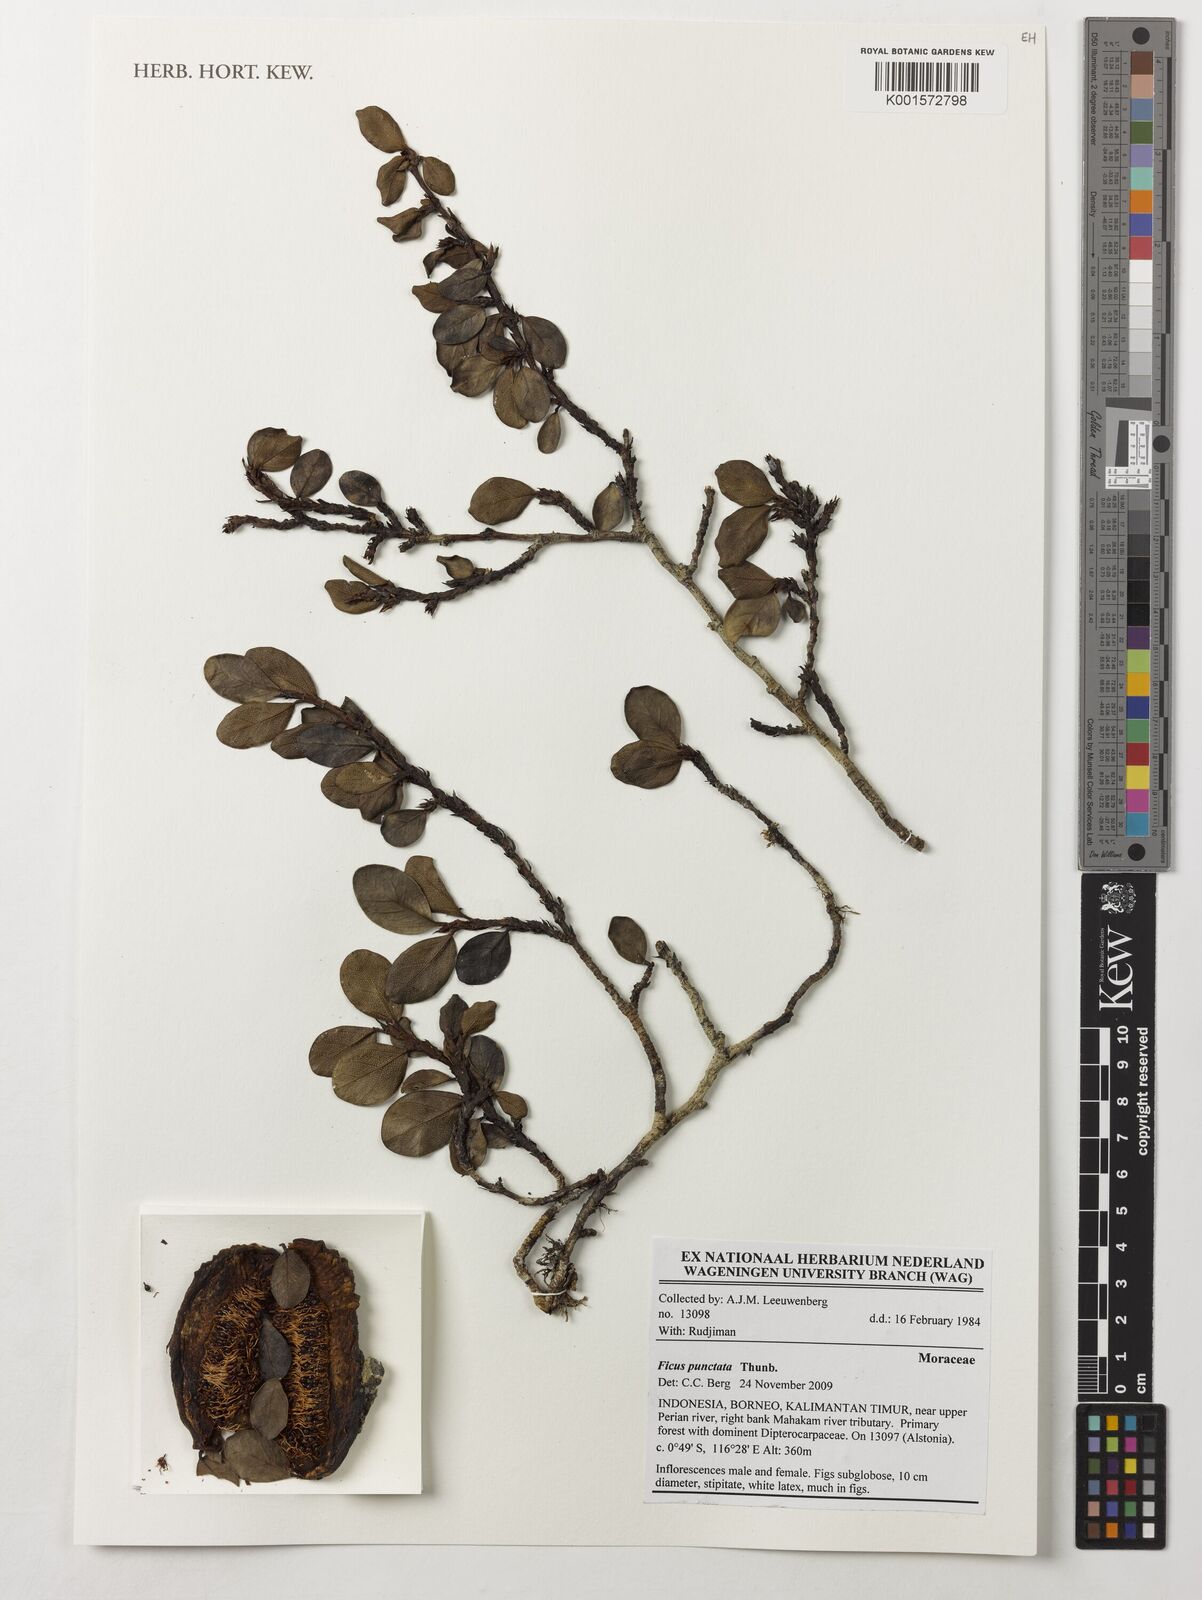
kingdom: Plantae
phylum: Tracheophyta
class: Magnoliopsida
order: Rosales
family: Moraceae
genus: Ficus
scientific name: Ficus punctata
